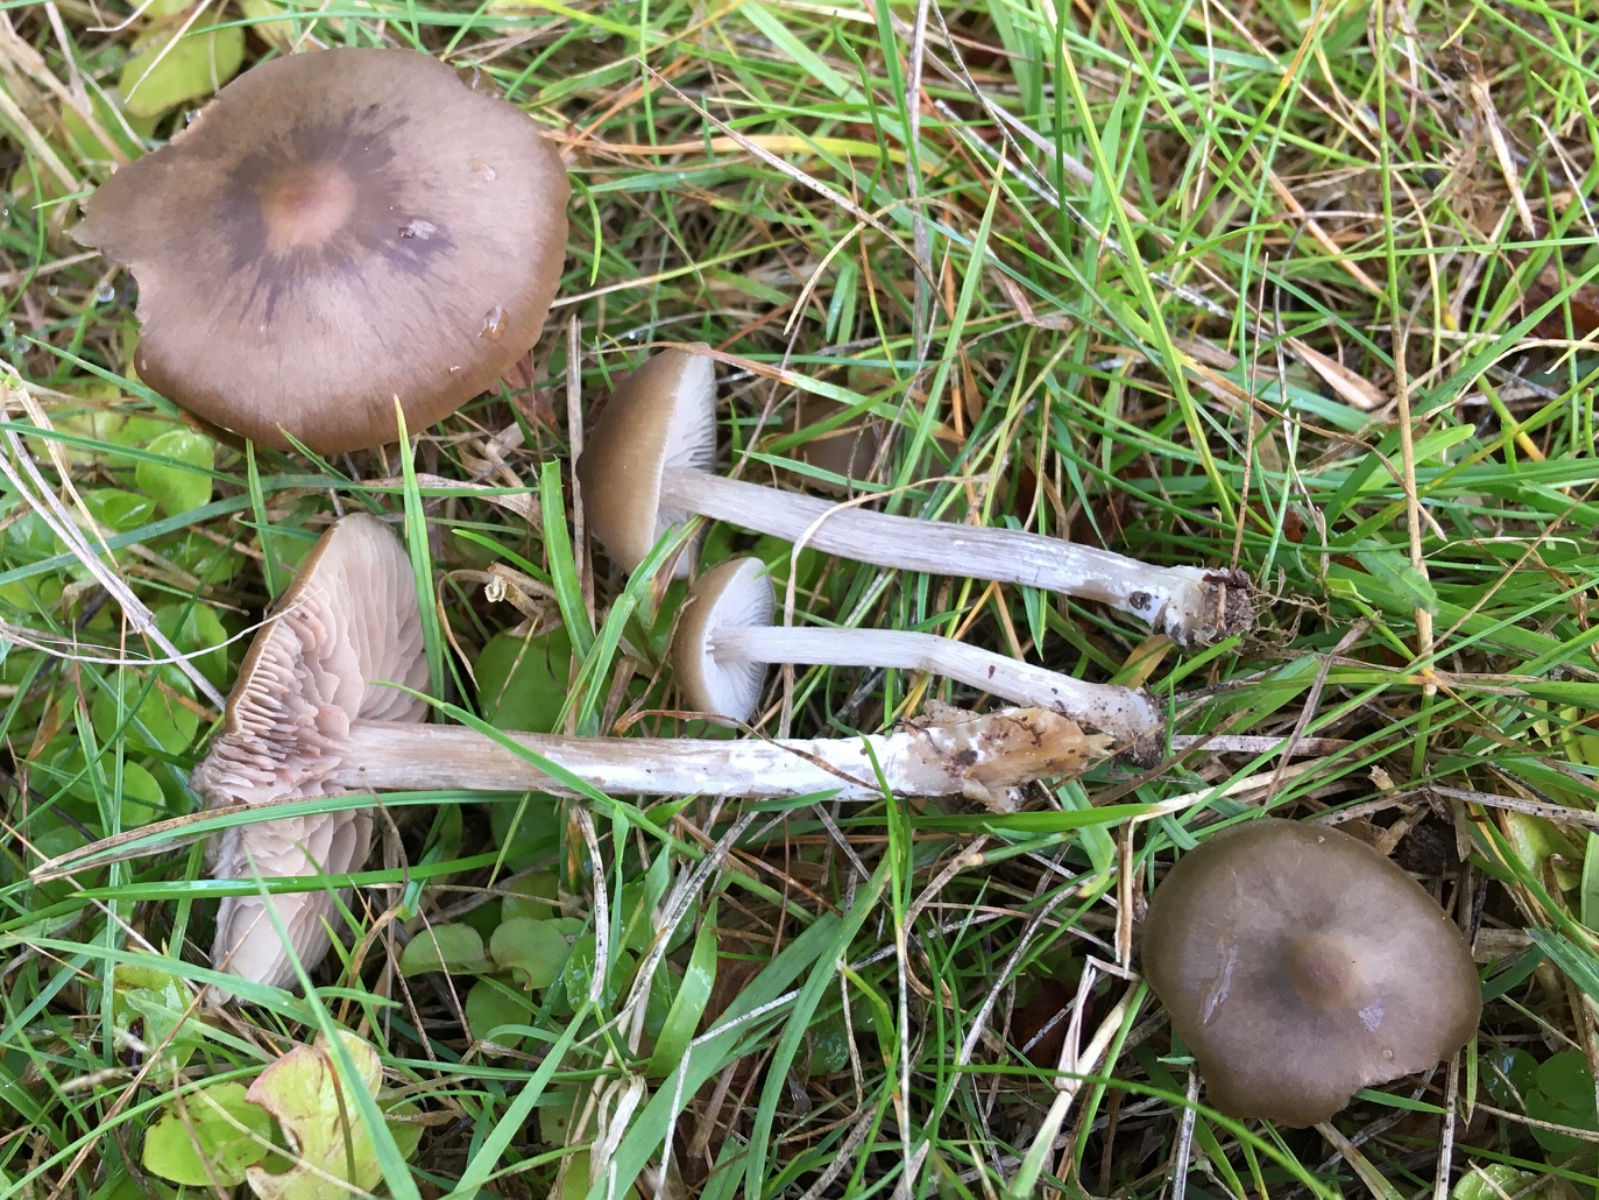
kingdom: Fungi
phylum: Basidiomycota
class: Agaricomycetes
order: Agaricales
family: Entolomataceae
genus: Entoloma
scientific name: Entoloma
